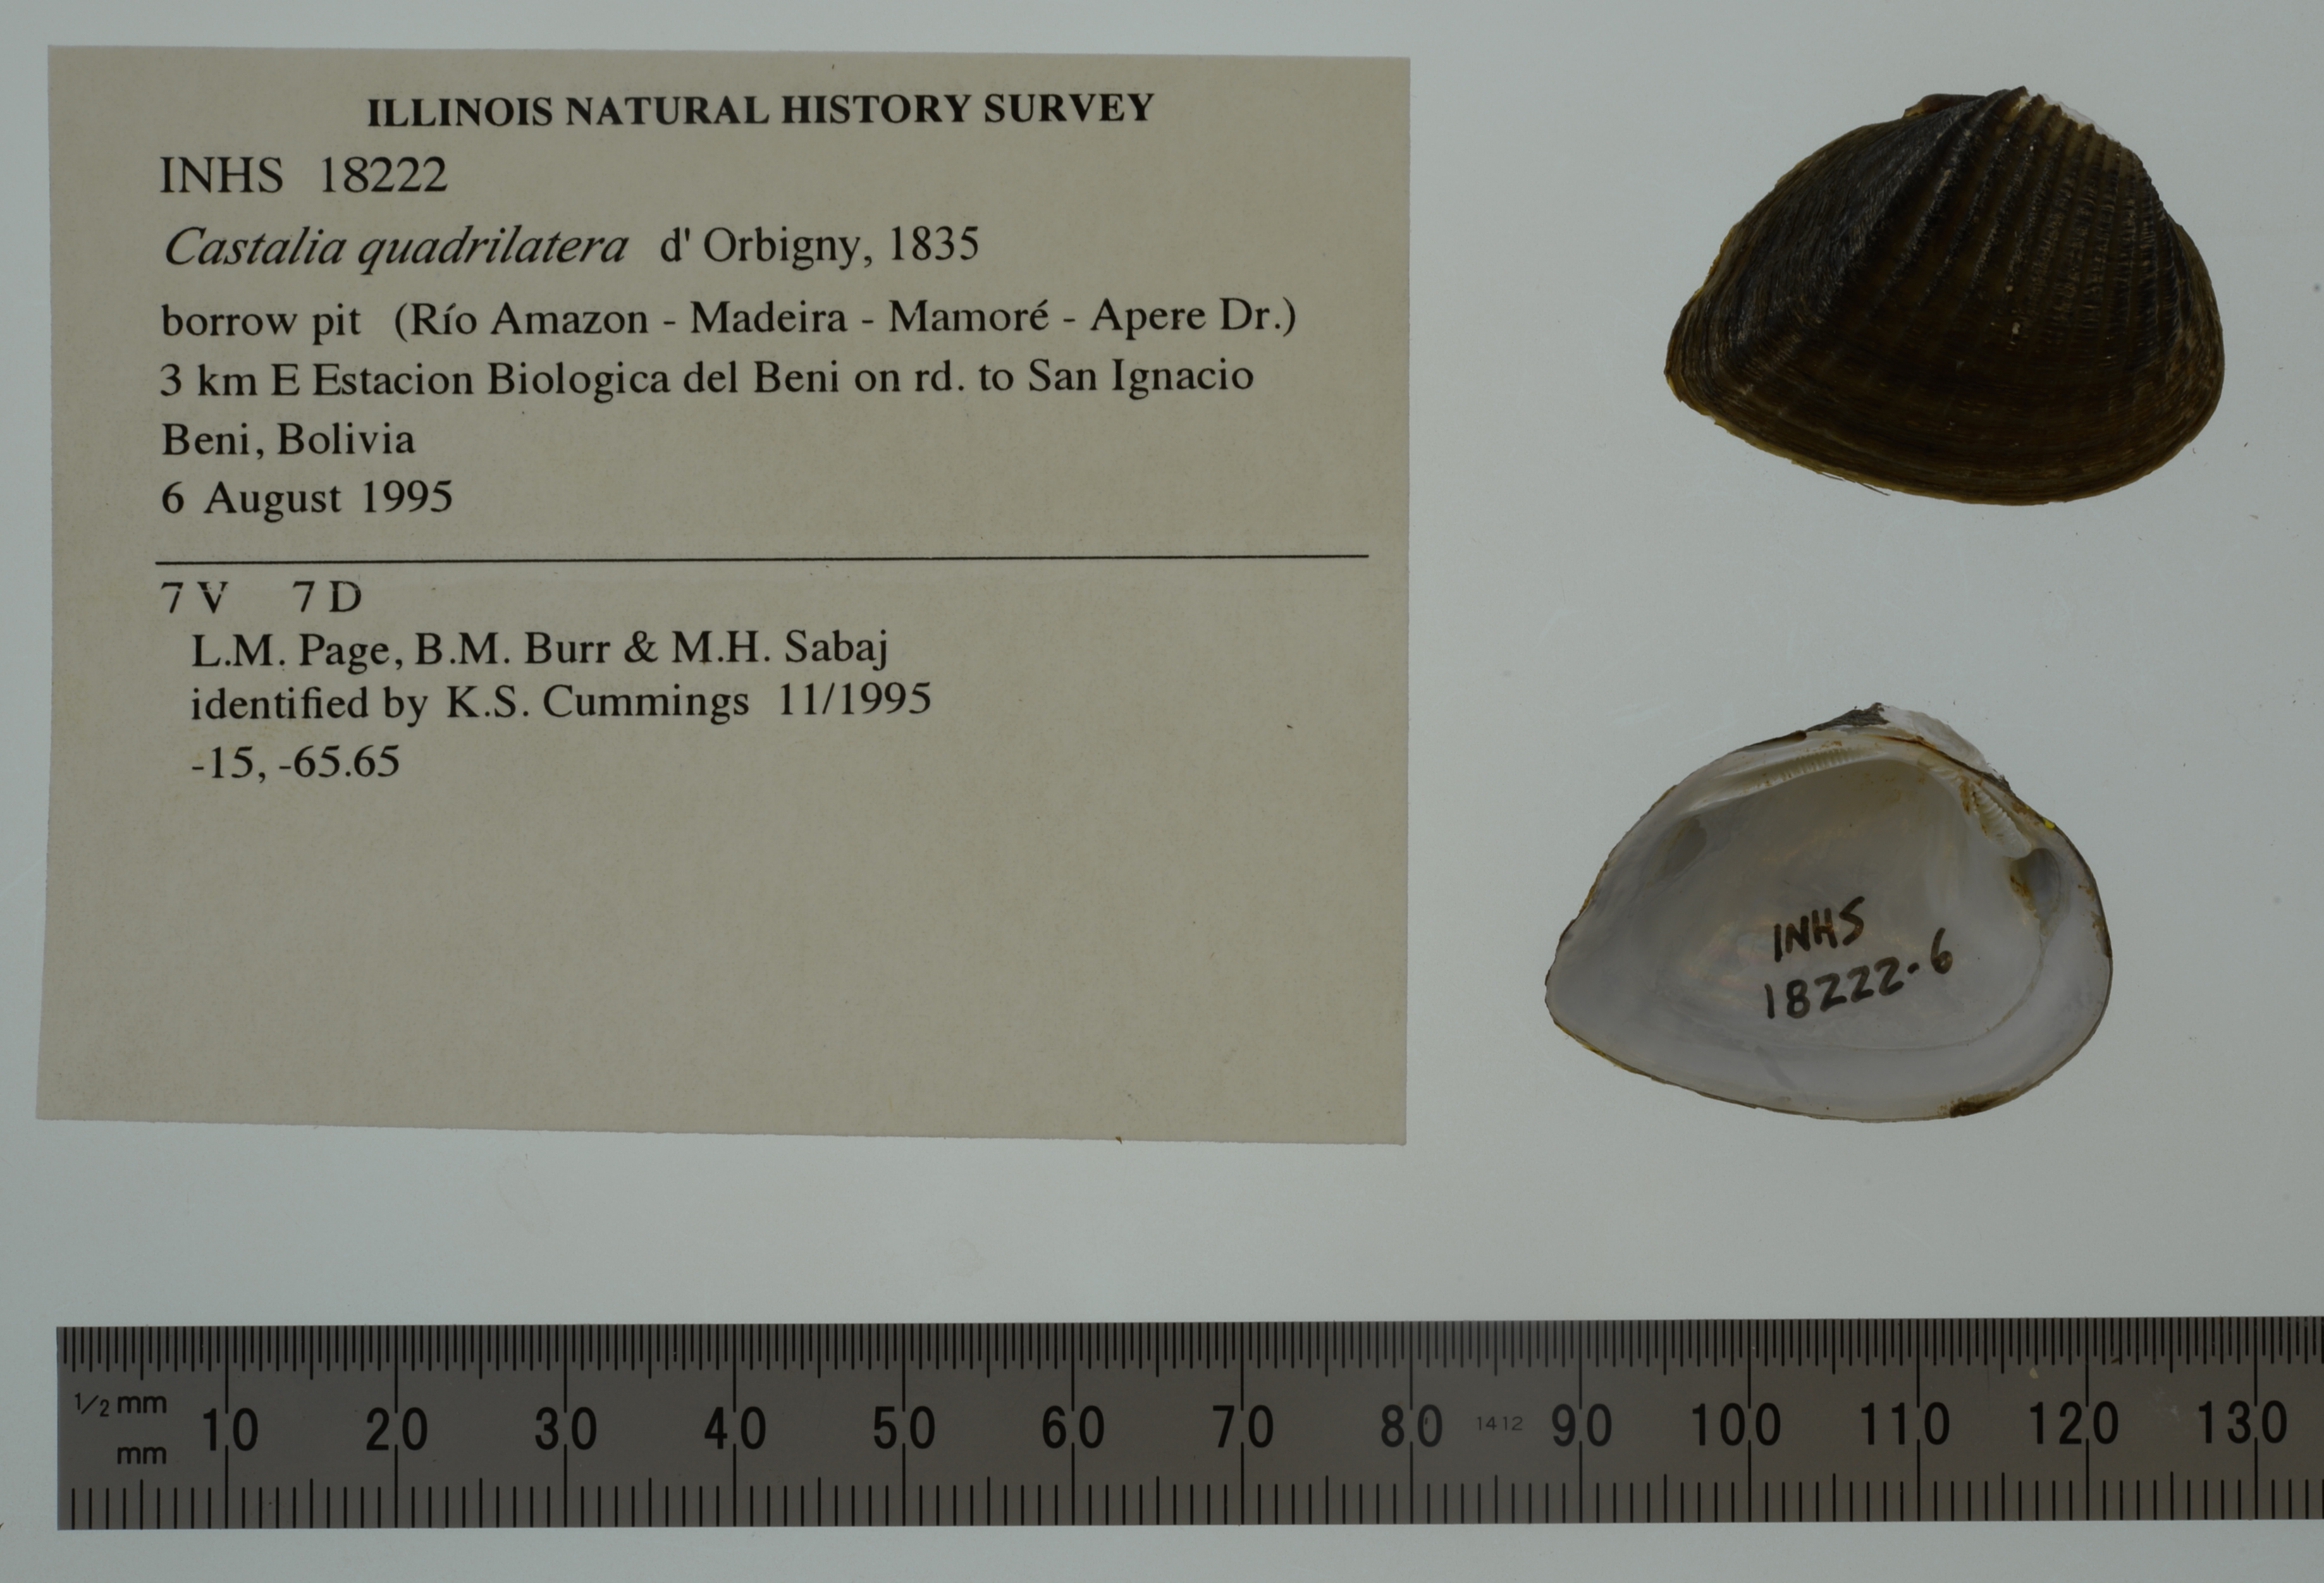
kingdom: Animalia
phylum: Mollusca
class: Bivalvia
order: Unionida
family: Hyriidae
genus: Castalia
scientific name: Castalia ambigua
